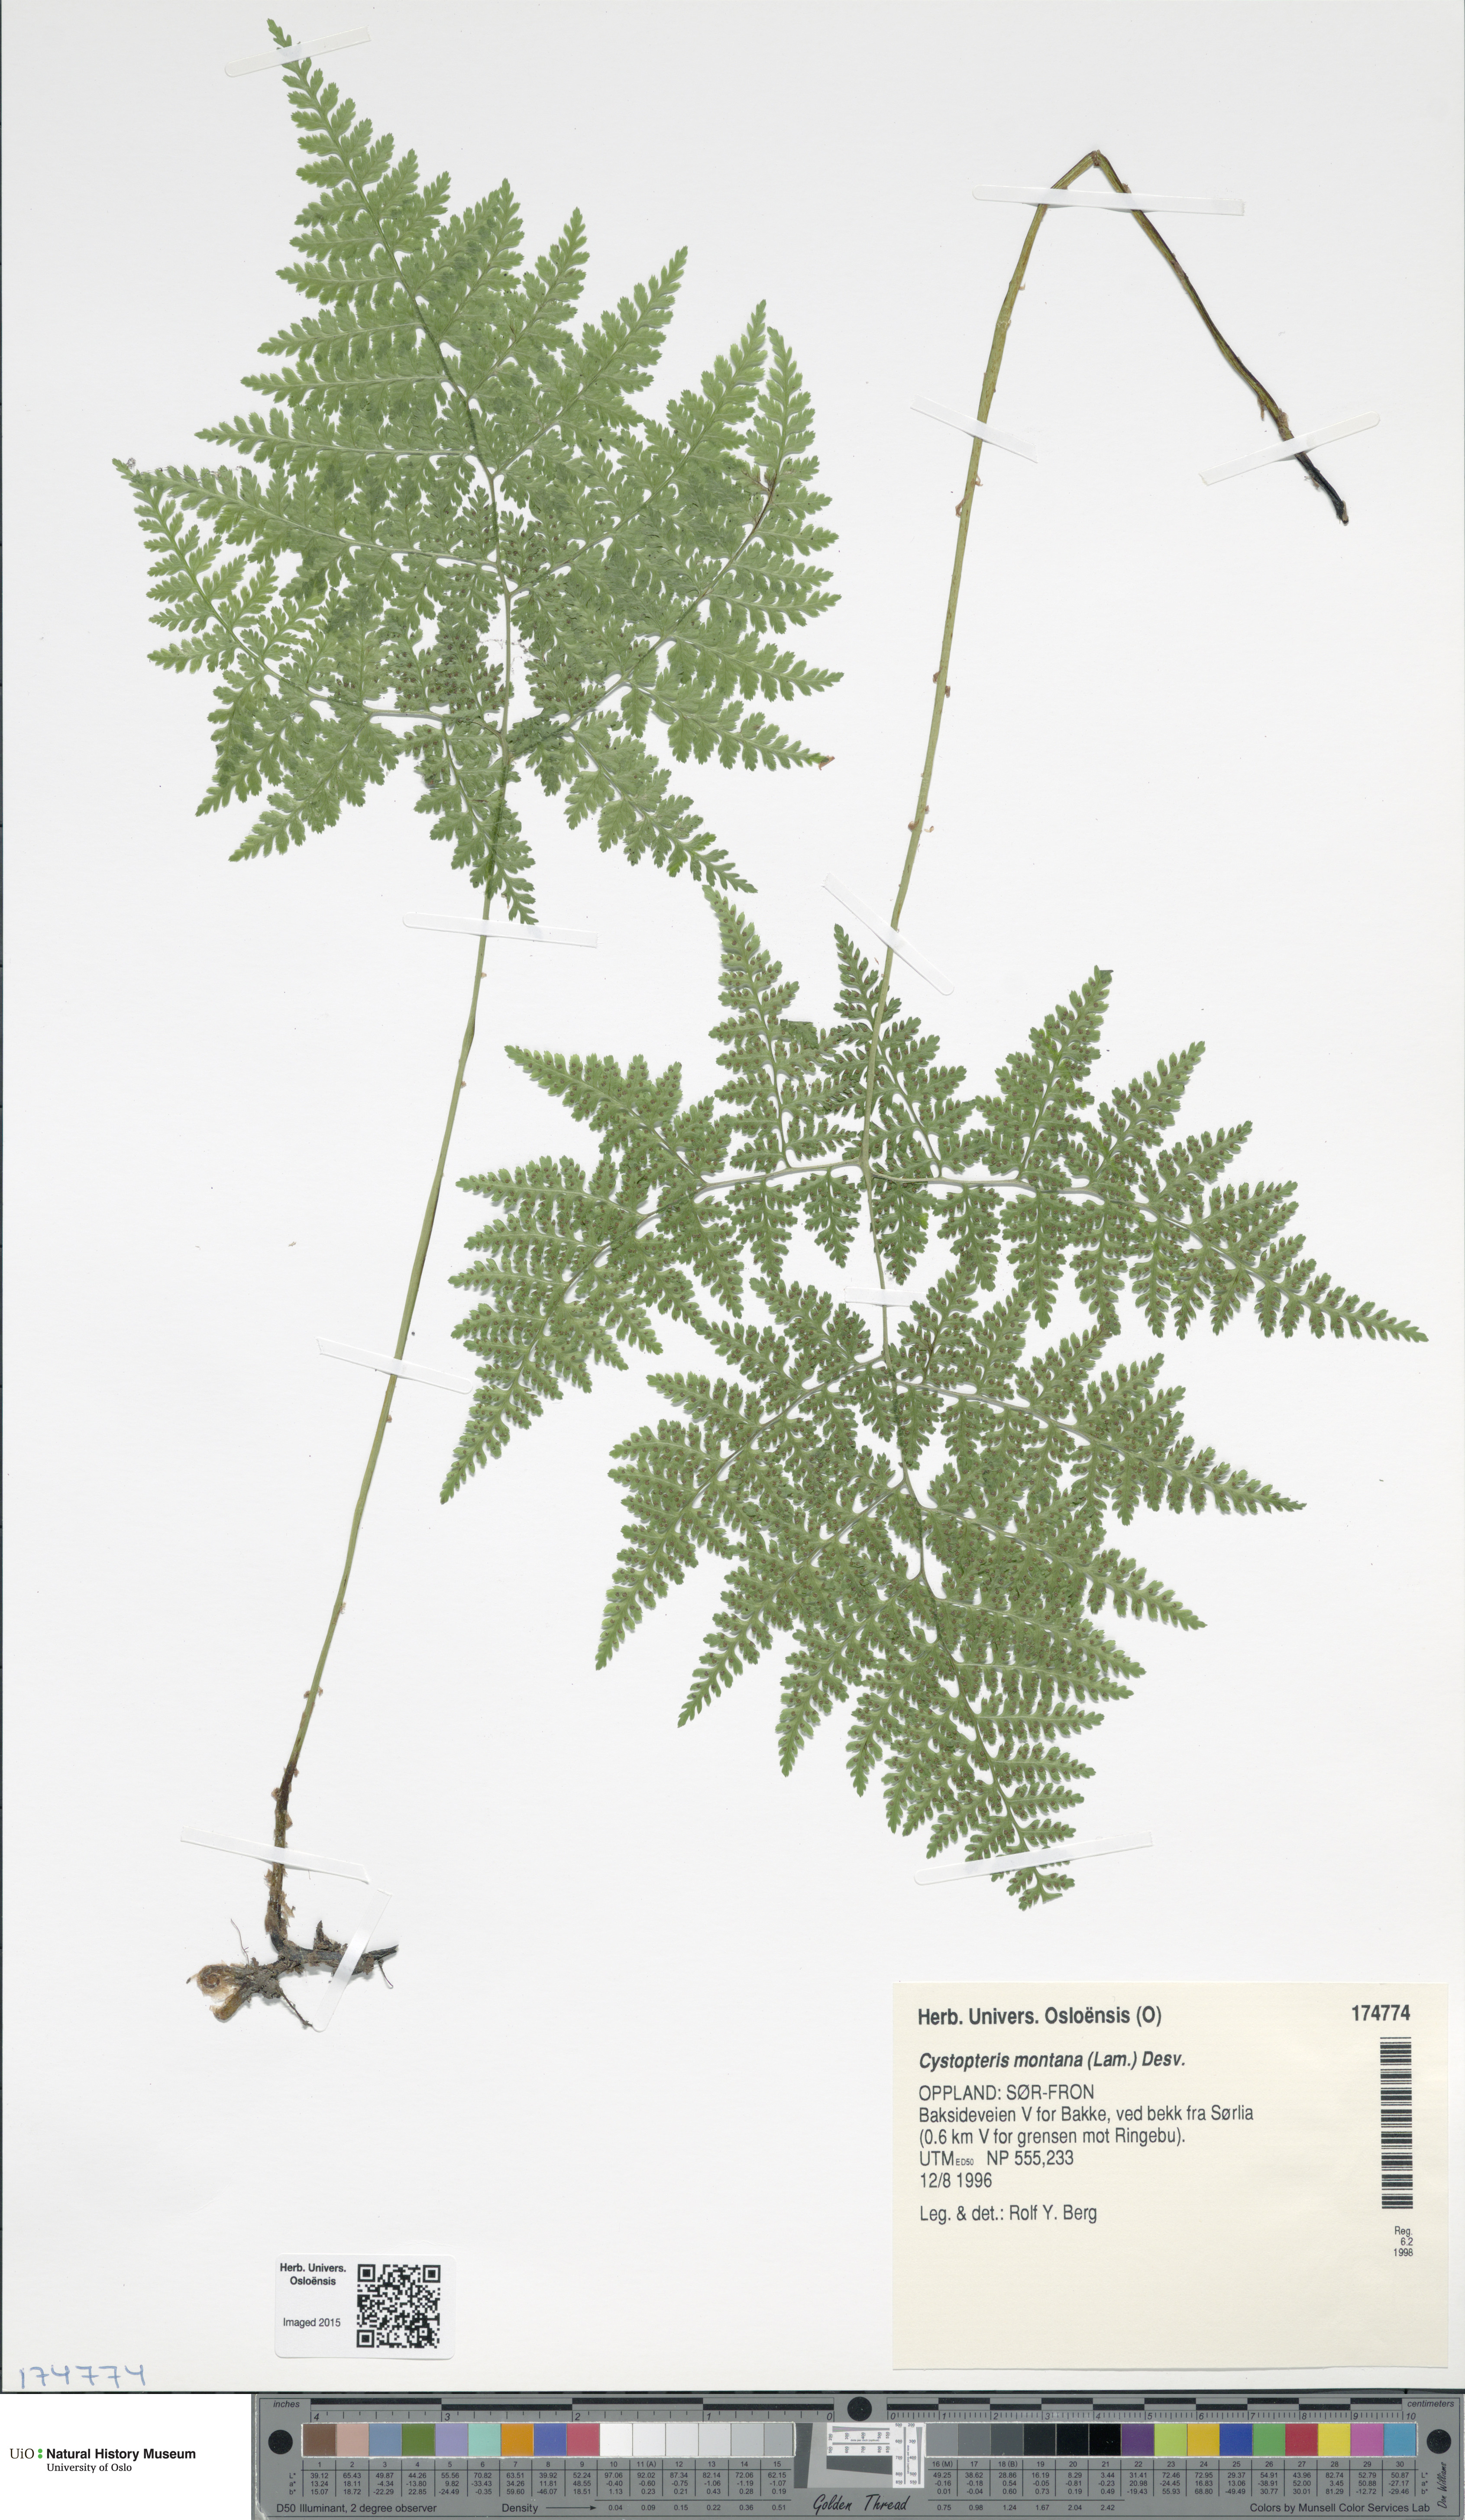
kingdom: Plantae
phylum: Tracheophyta
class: Polypodiopsida
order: Polypodiales
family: Cystopteridaceae
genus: Cystopteris
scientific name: Cystopteris montana
